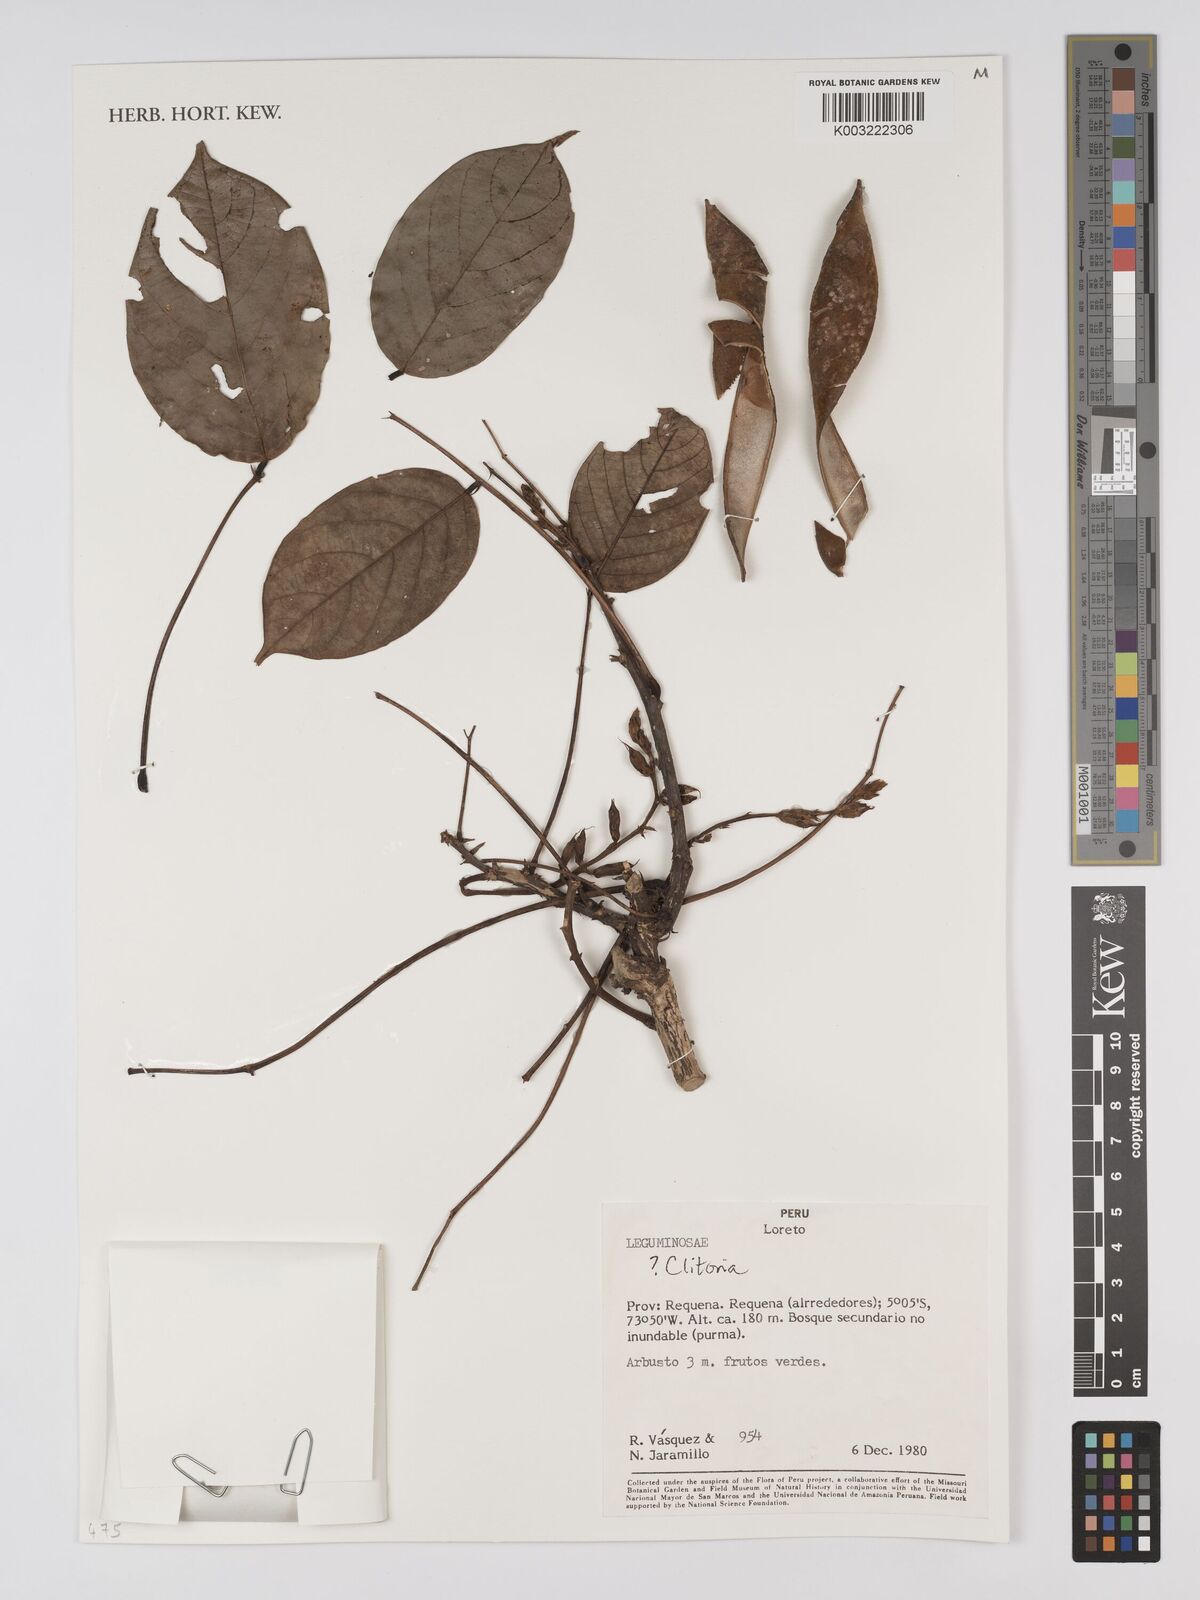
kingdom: Plantae
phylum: Tracheophyta
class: Magnoliopsida
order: Fabales
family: Fabaceae
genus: Clitoria
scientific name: Clitoria
